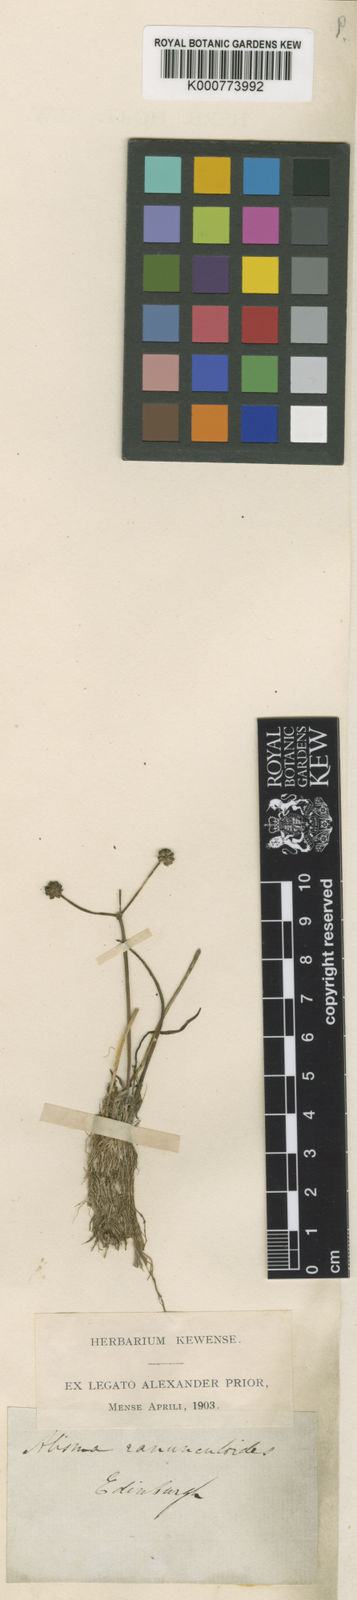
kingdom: Plantae
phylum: Tracheophyta
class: Liliopsida
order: Alismatales
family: Alismataceae
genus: Baldellia
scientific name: Baldellia ranunculoides
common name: Lesser water-plantain
